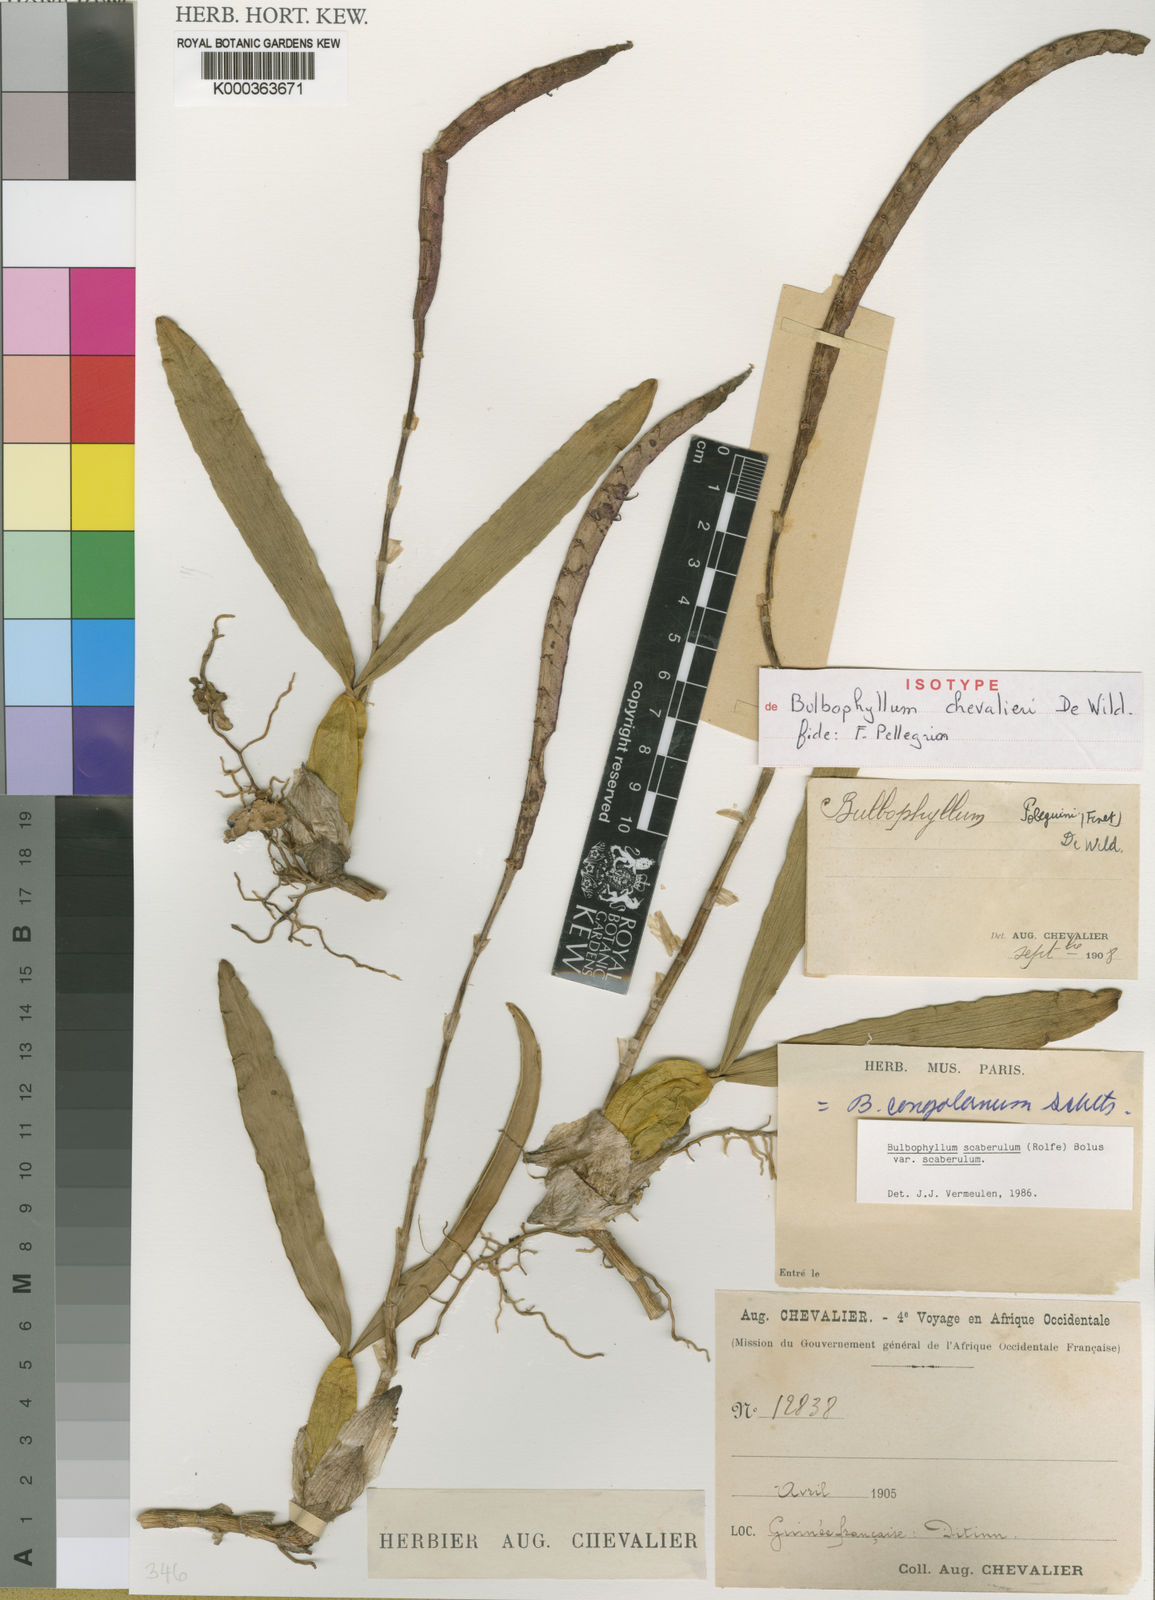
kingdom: Plantae
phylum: Tracheophyta
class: Liliopsida
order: Asparagales
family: Orchidaceae
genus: Bulbophyllum
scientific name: Bulbophyllum scaberulum
